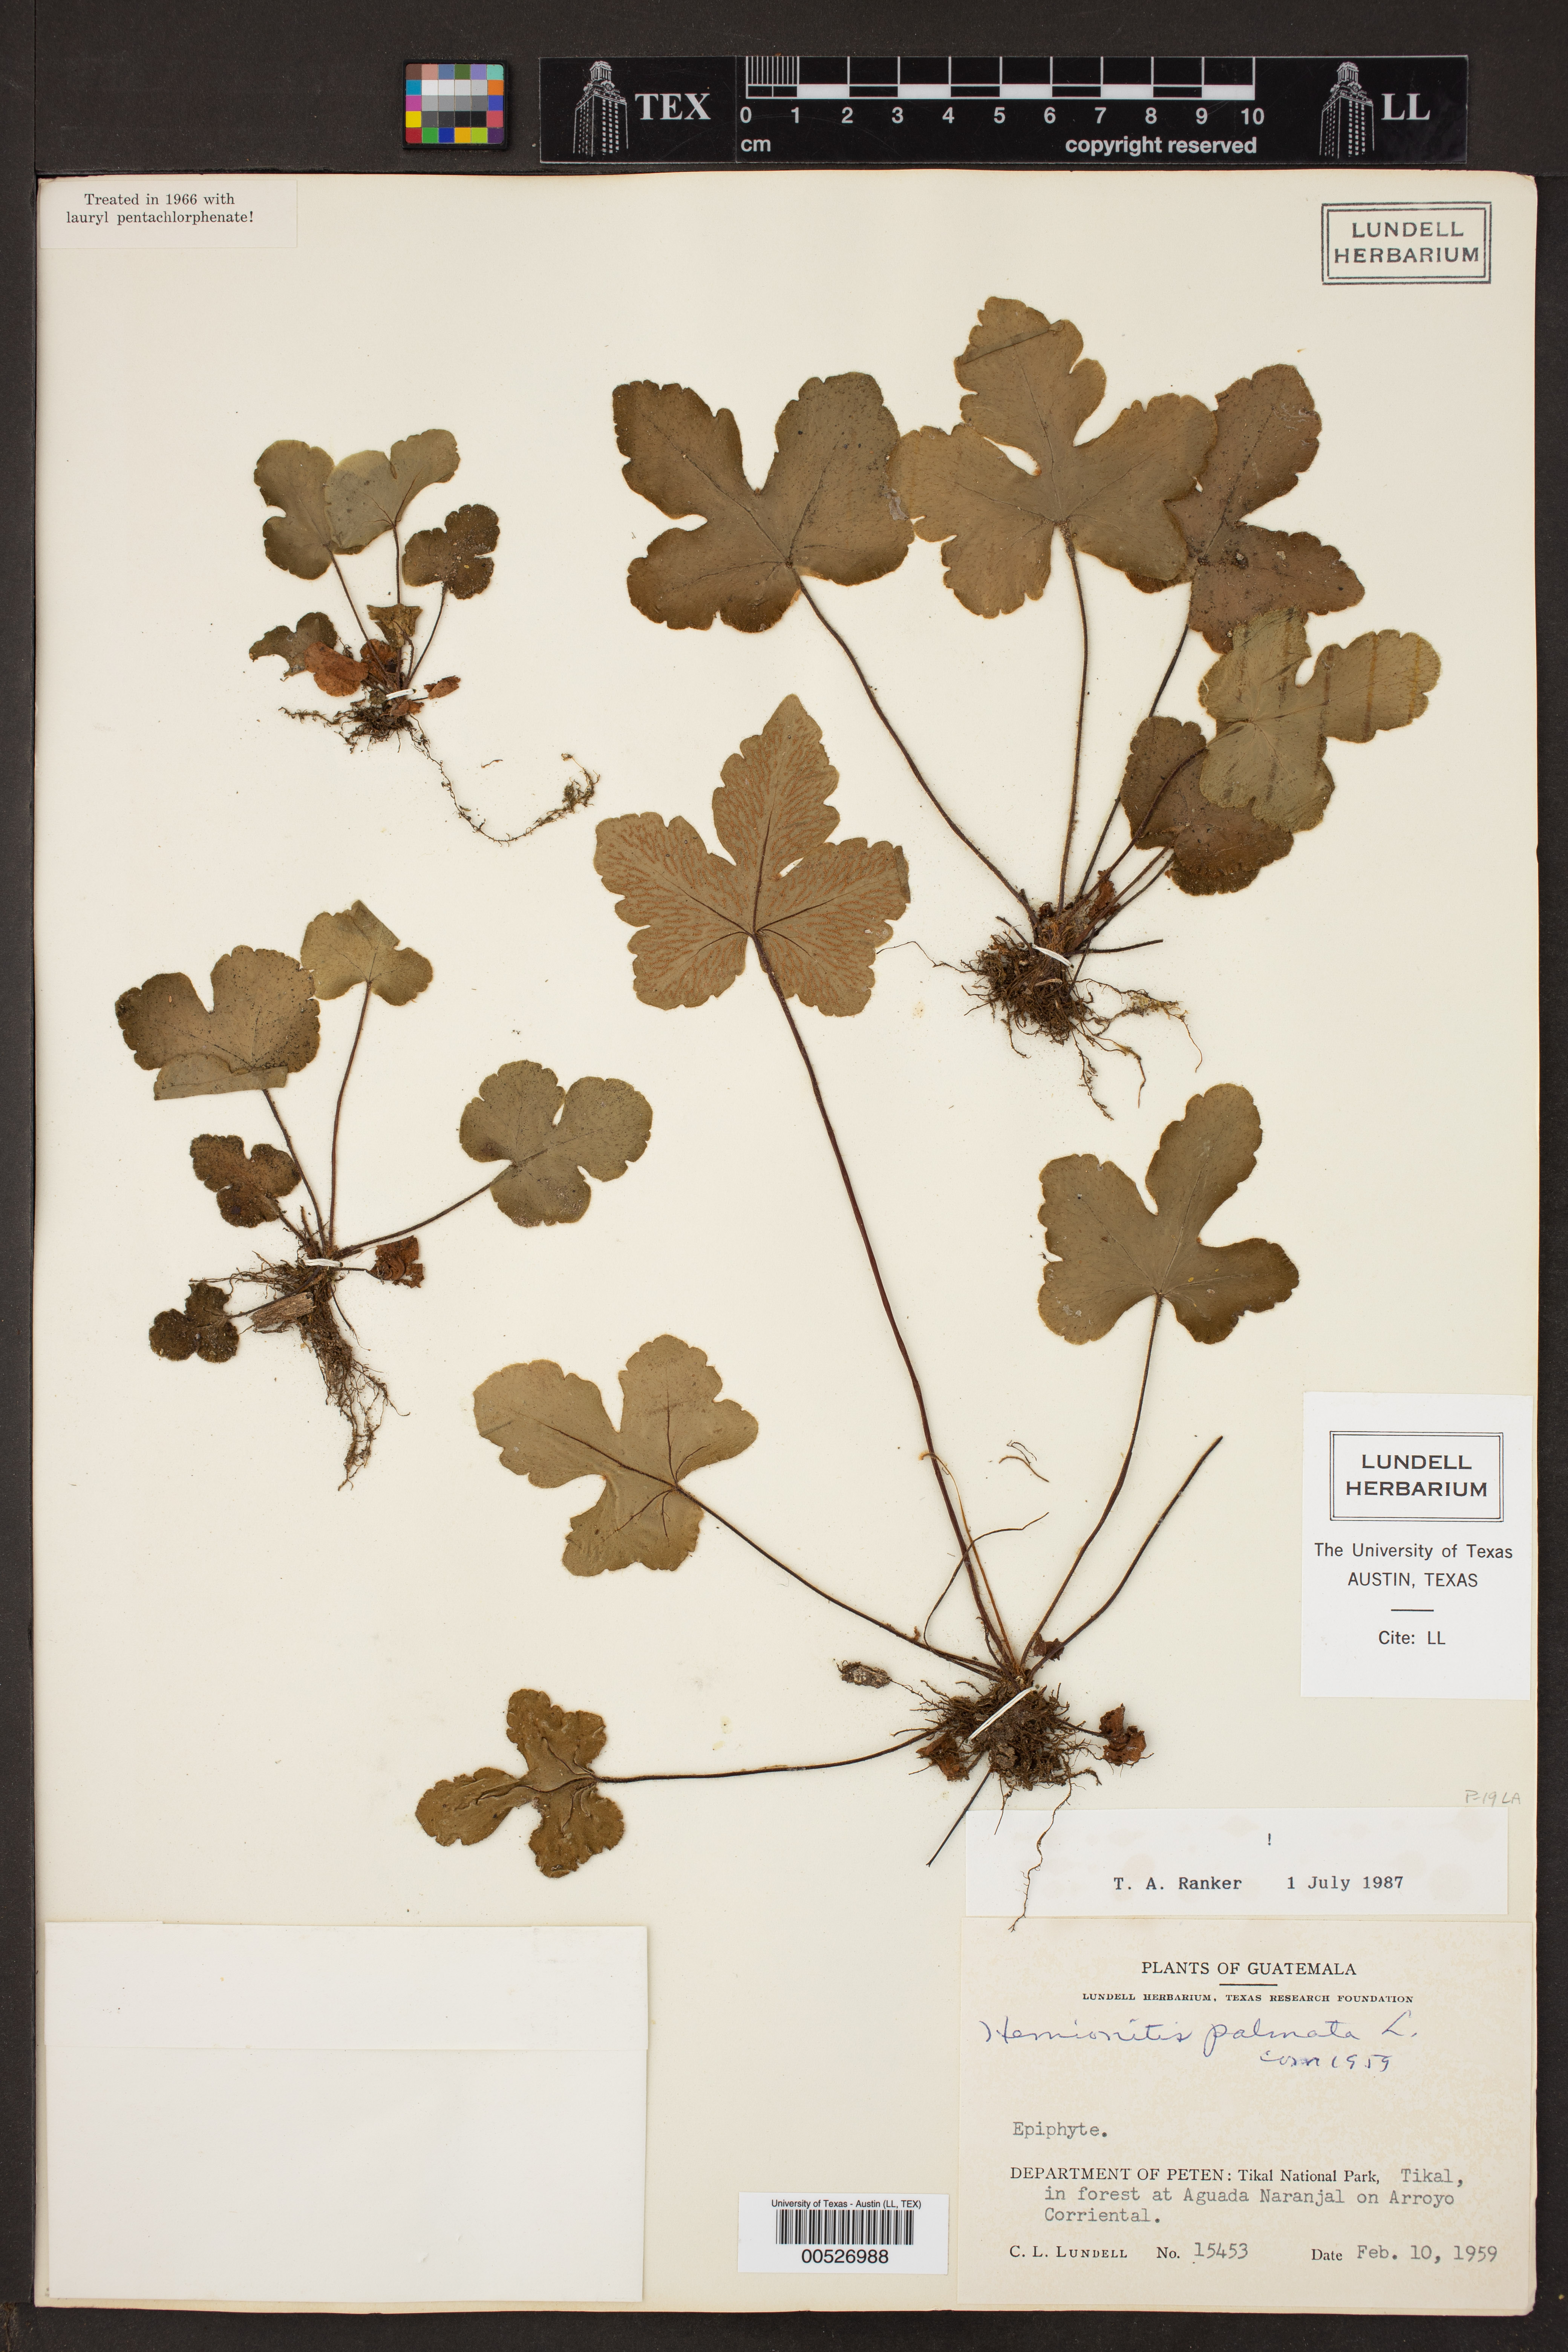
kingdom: Plantae
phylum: Tracheophyta
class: Polypodiopsida
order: Polypodiales
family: Pteridaceae
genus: Hemionitis
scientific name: Hemionitis palmata
